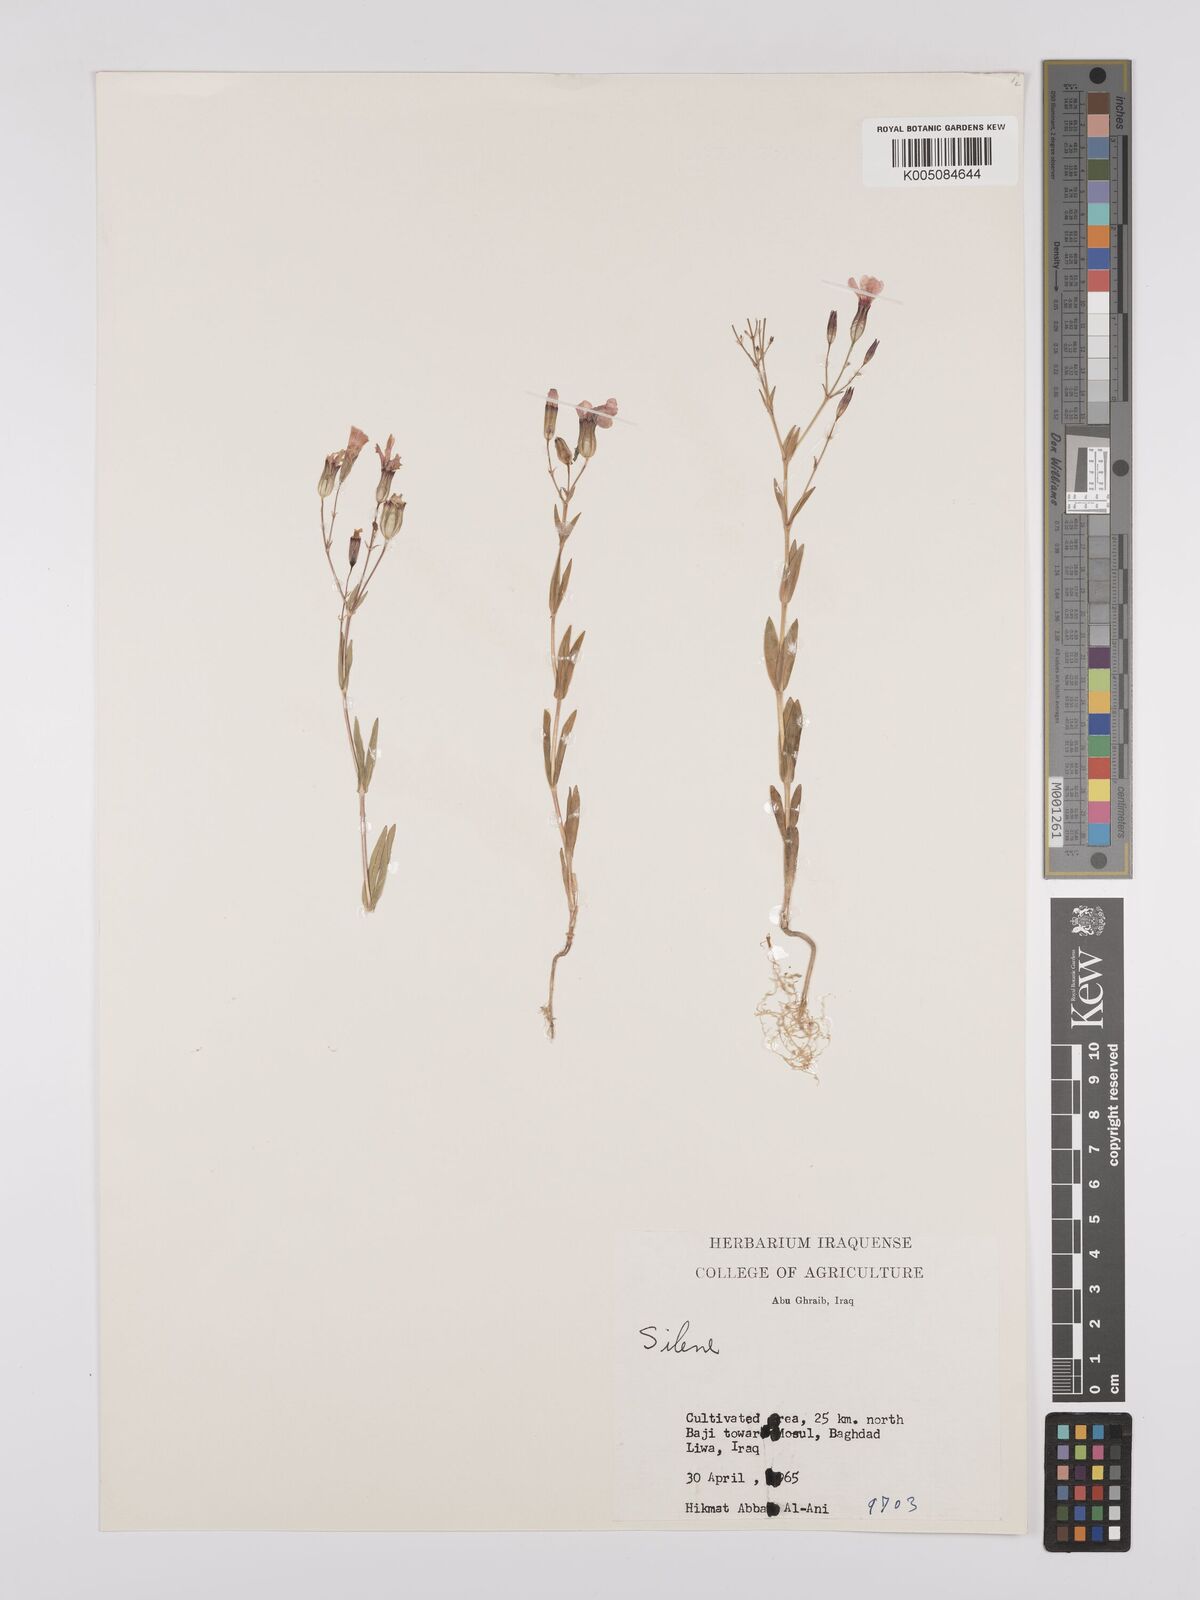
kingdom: Plantae
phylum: Tracheophyta
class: Magnoliopsida
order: Caryophyllales
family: Caryophyllaceae
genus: Vaccaria
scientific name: Vaccaria
